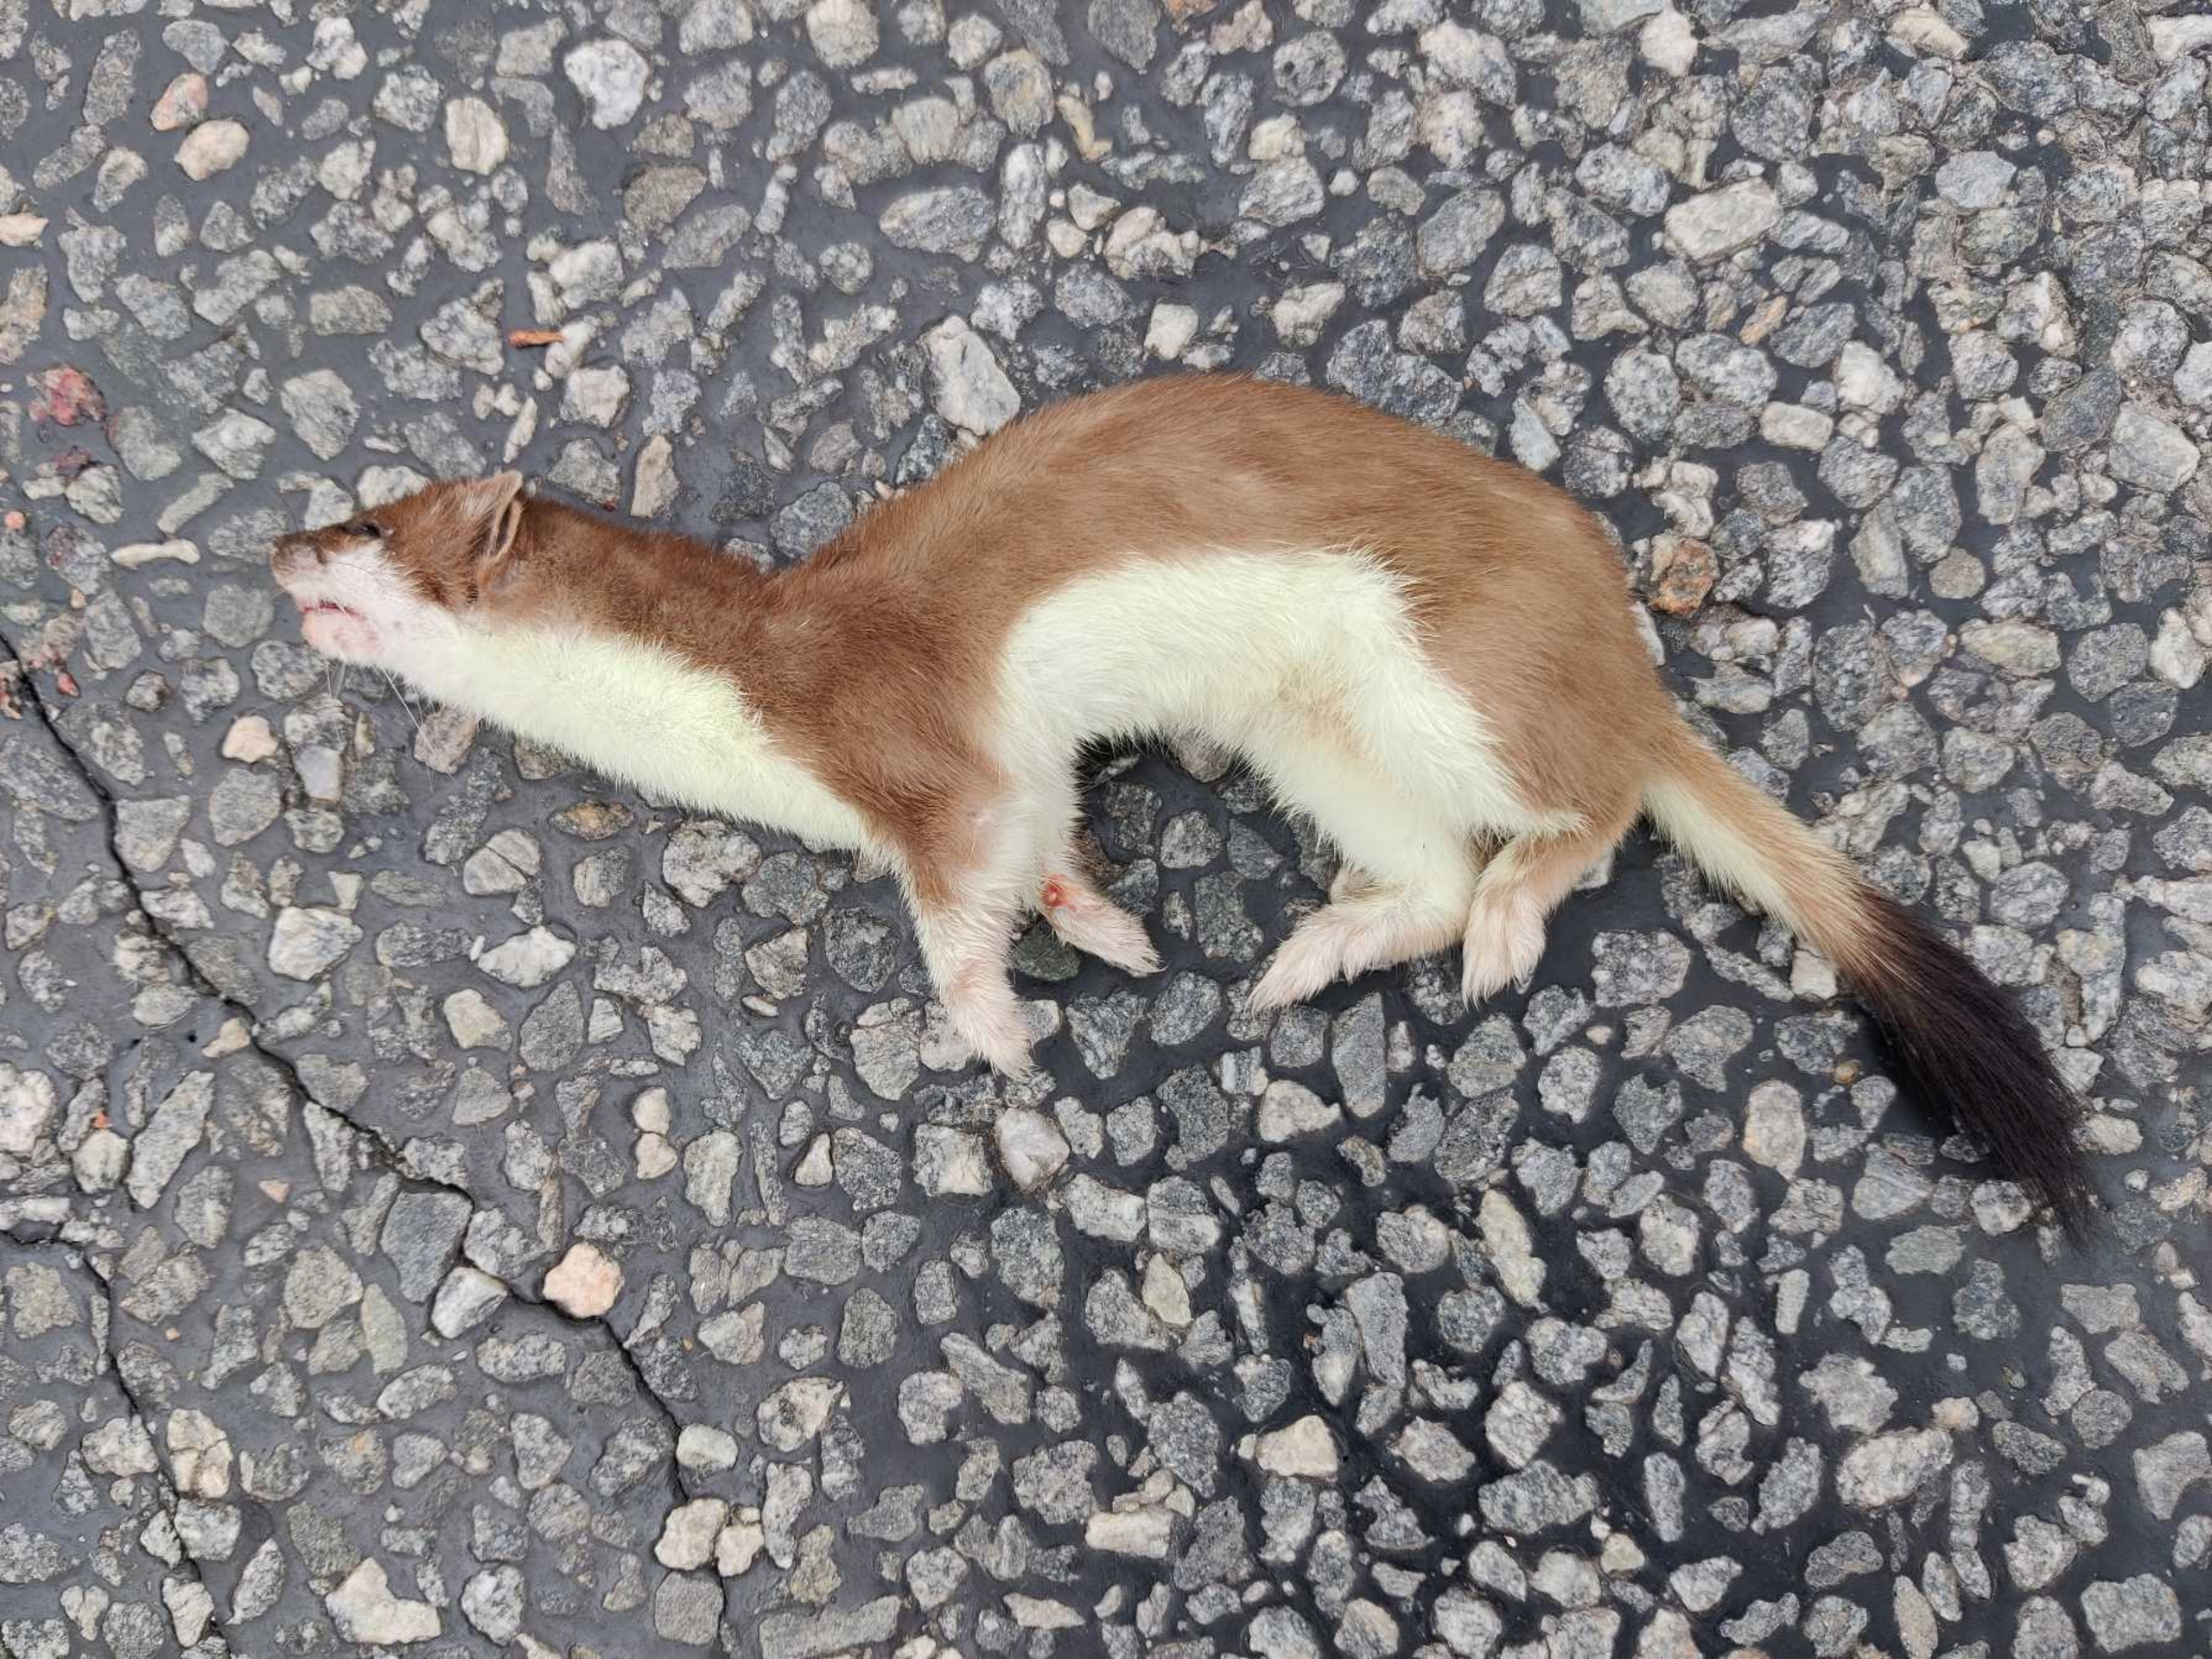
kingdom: Animalia
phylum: Chordata
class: Mammalia
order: Carnivora
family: Mustelidae
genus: Mustela
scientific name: Mustela erminea
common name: Lækat
